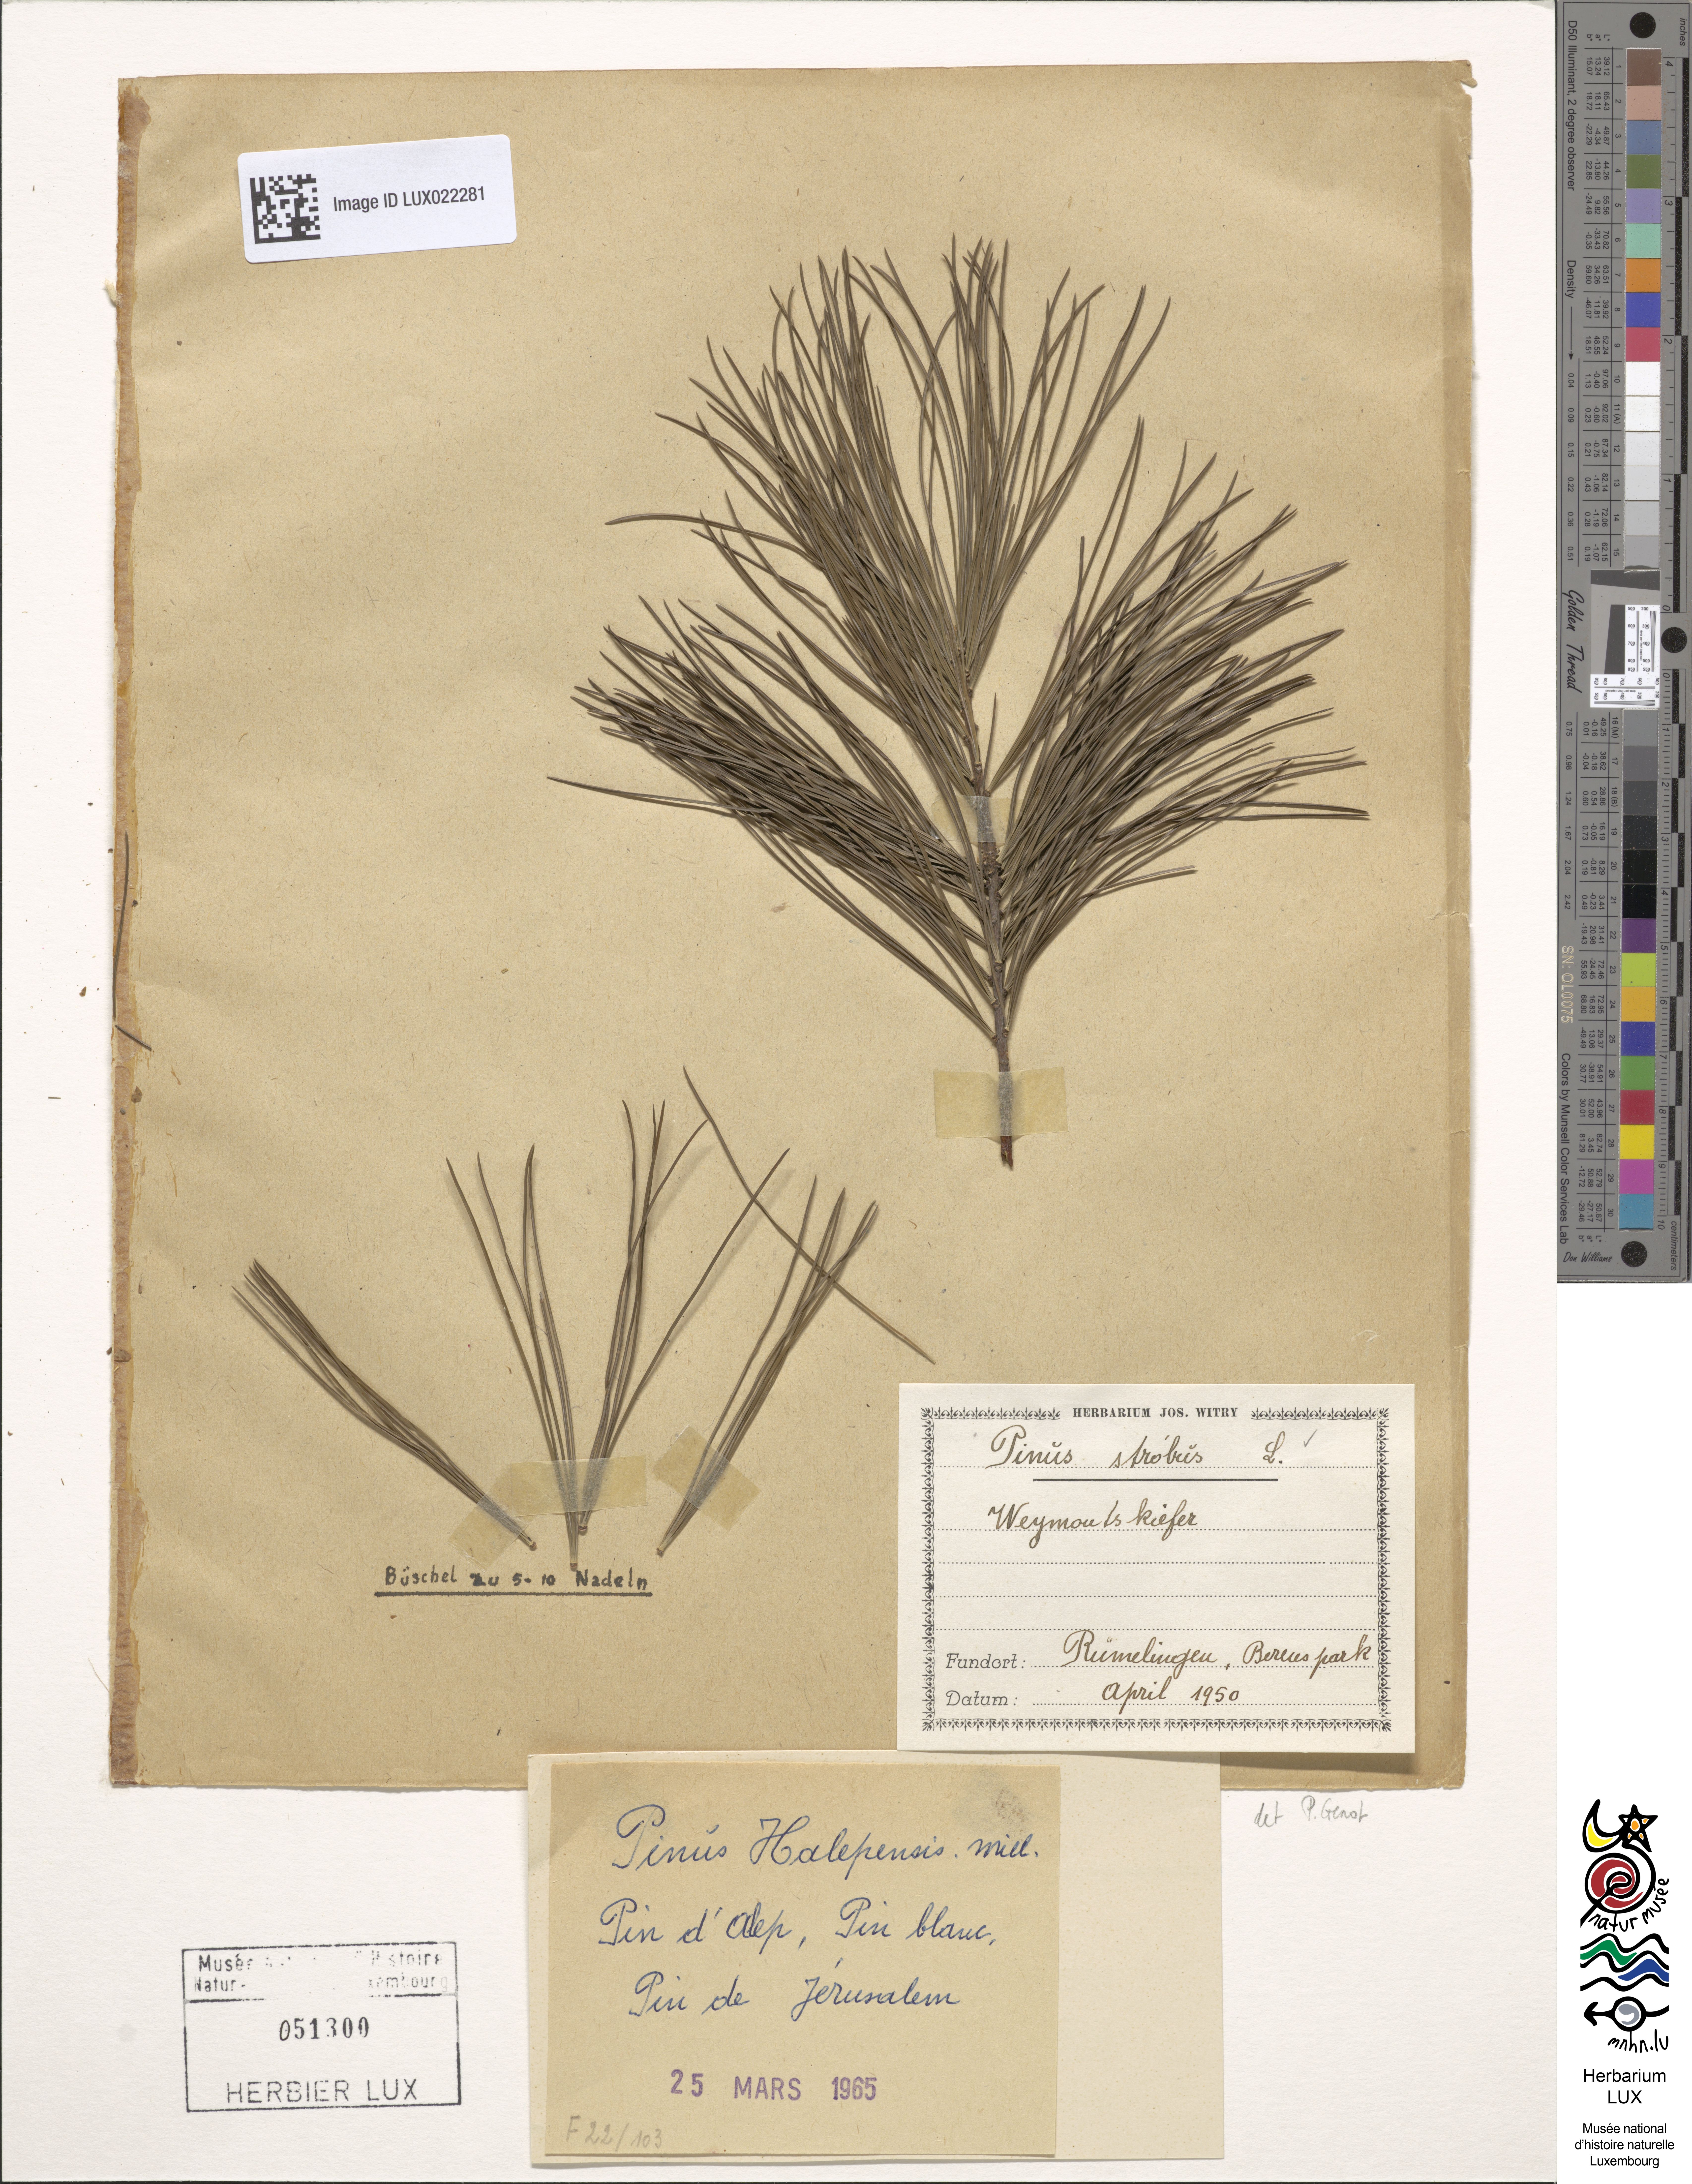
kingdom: Plantae
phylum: Tracheophyta
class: Pinopsida
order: Pinales
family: Pinaceae
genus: Pinus
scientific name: Pinus strobus
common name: Weymouth pine
